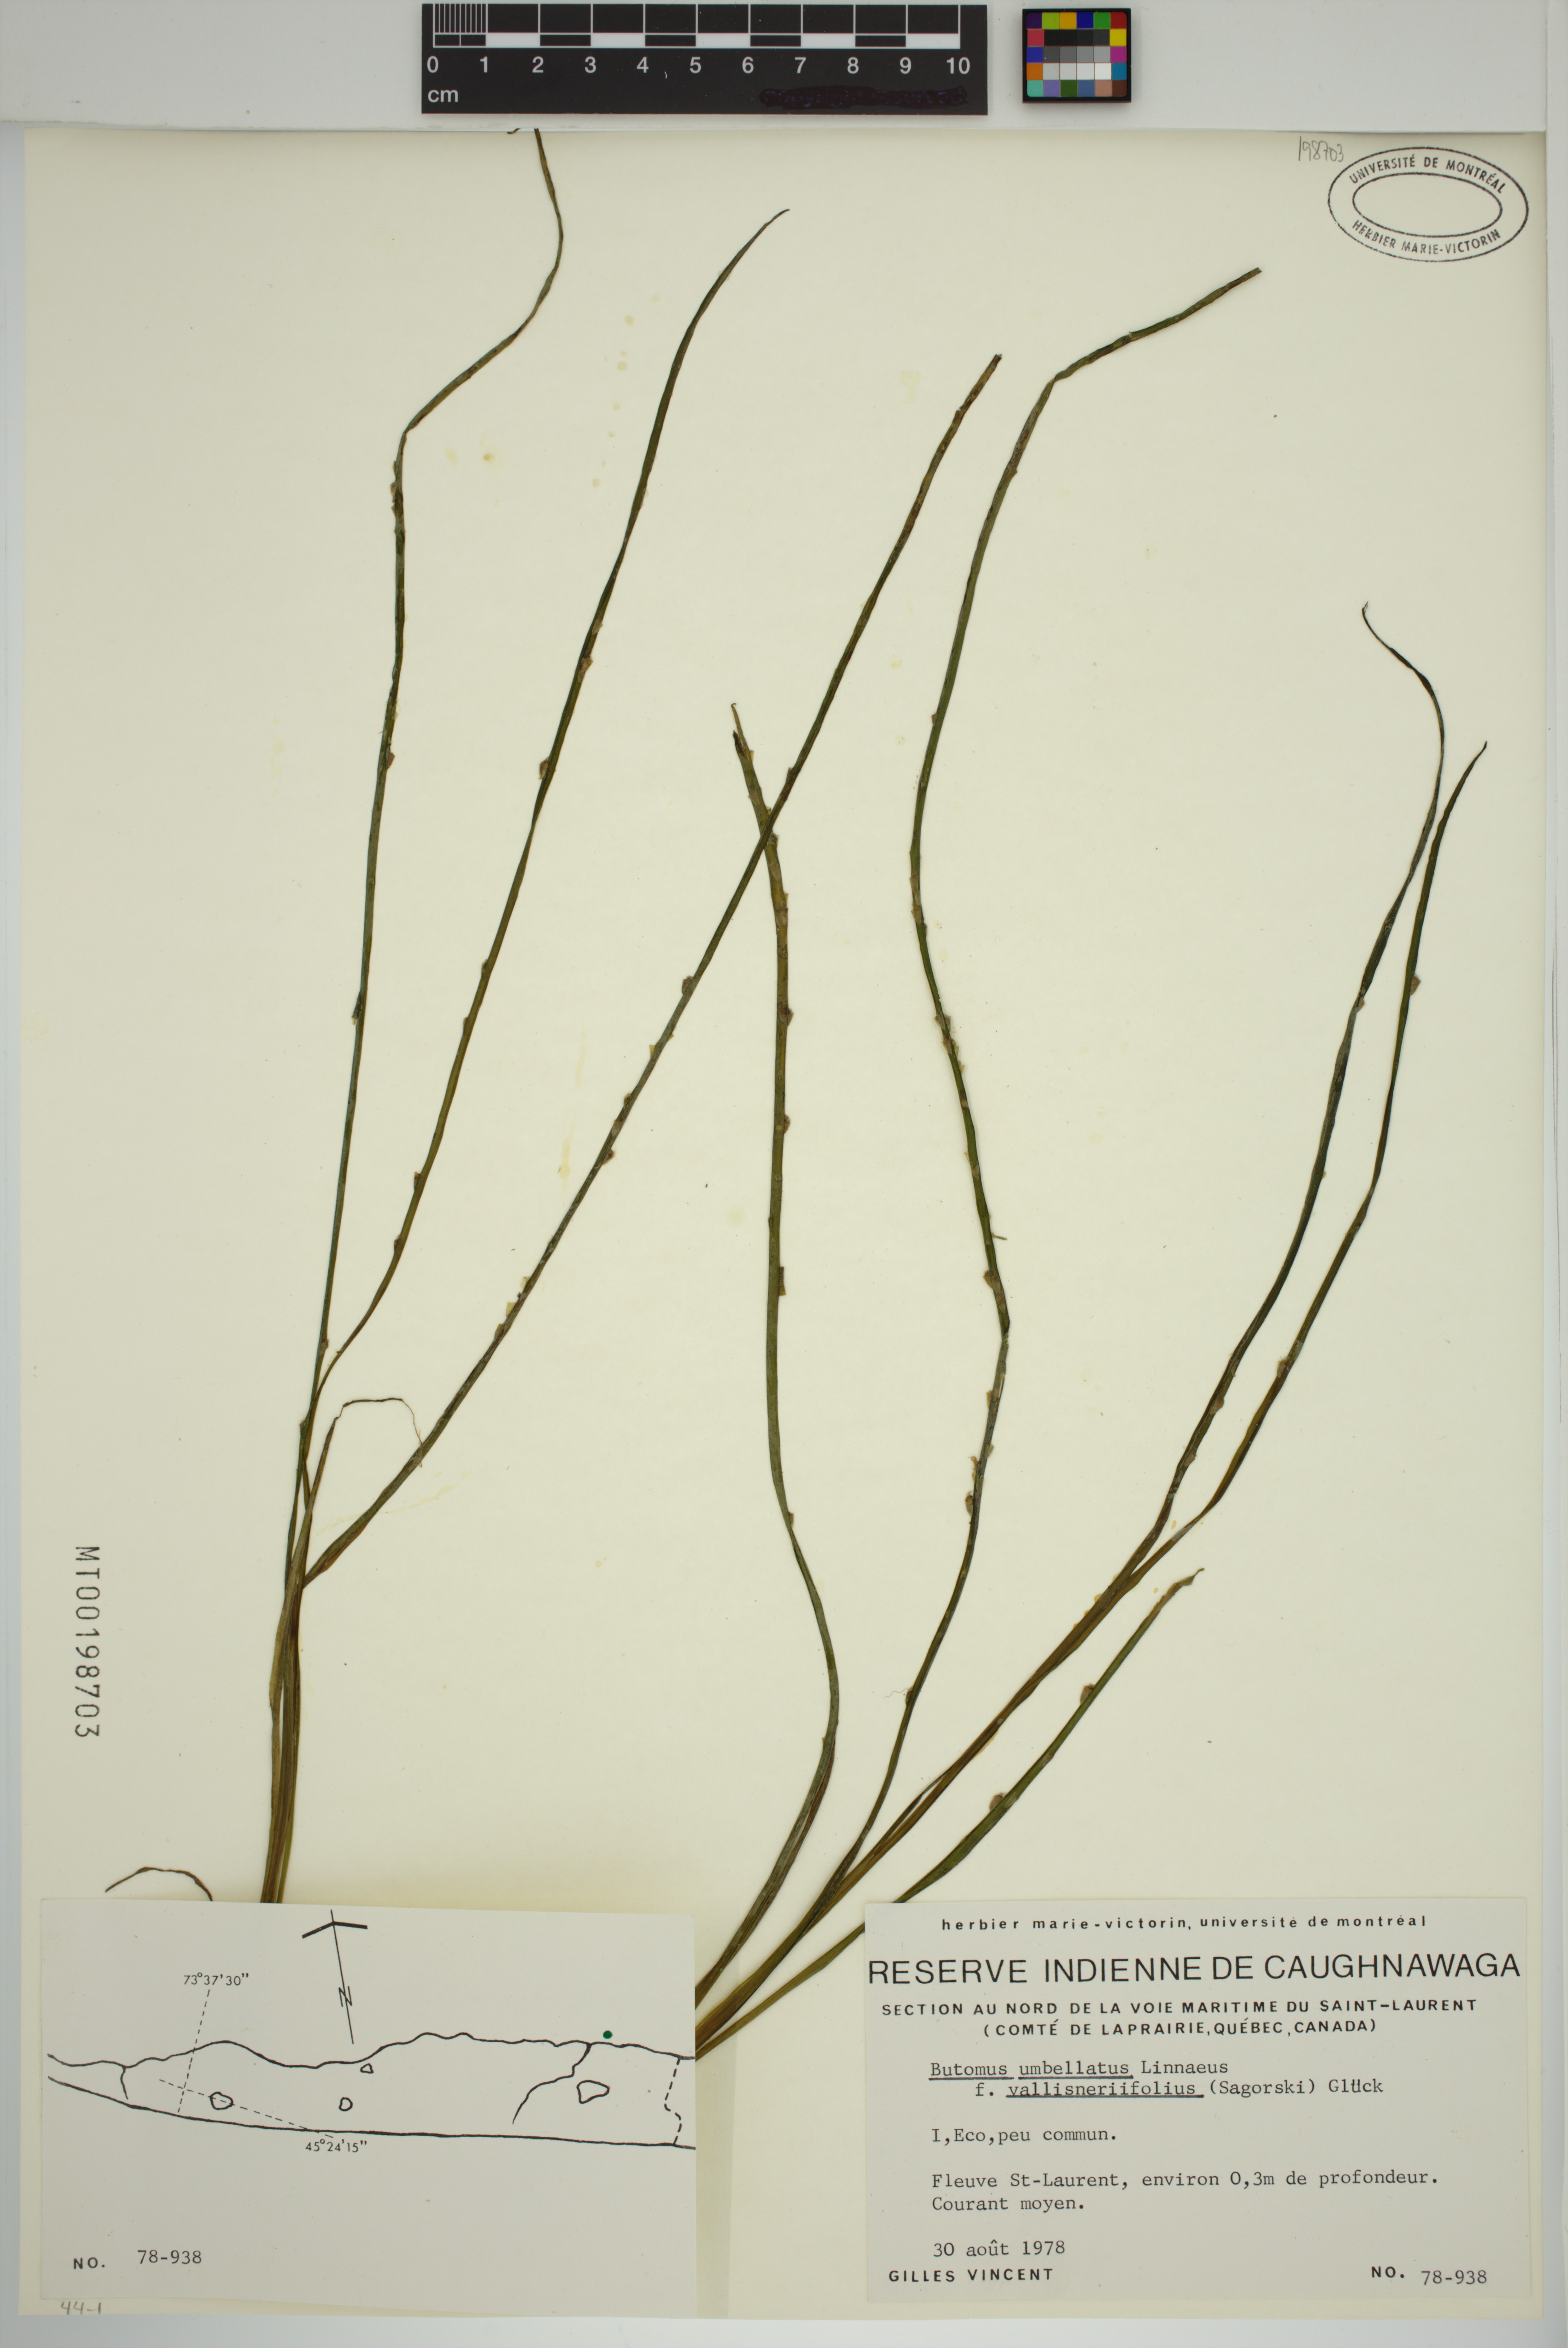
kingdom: Plantae
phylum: Tracheophyta
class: Liliopsida
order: Alismatales
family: Butomaceae
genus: Butomus
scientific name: Butomus umbellatus
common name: Flowering-rush
